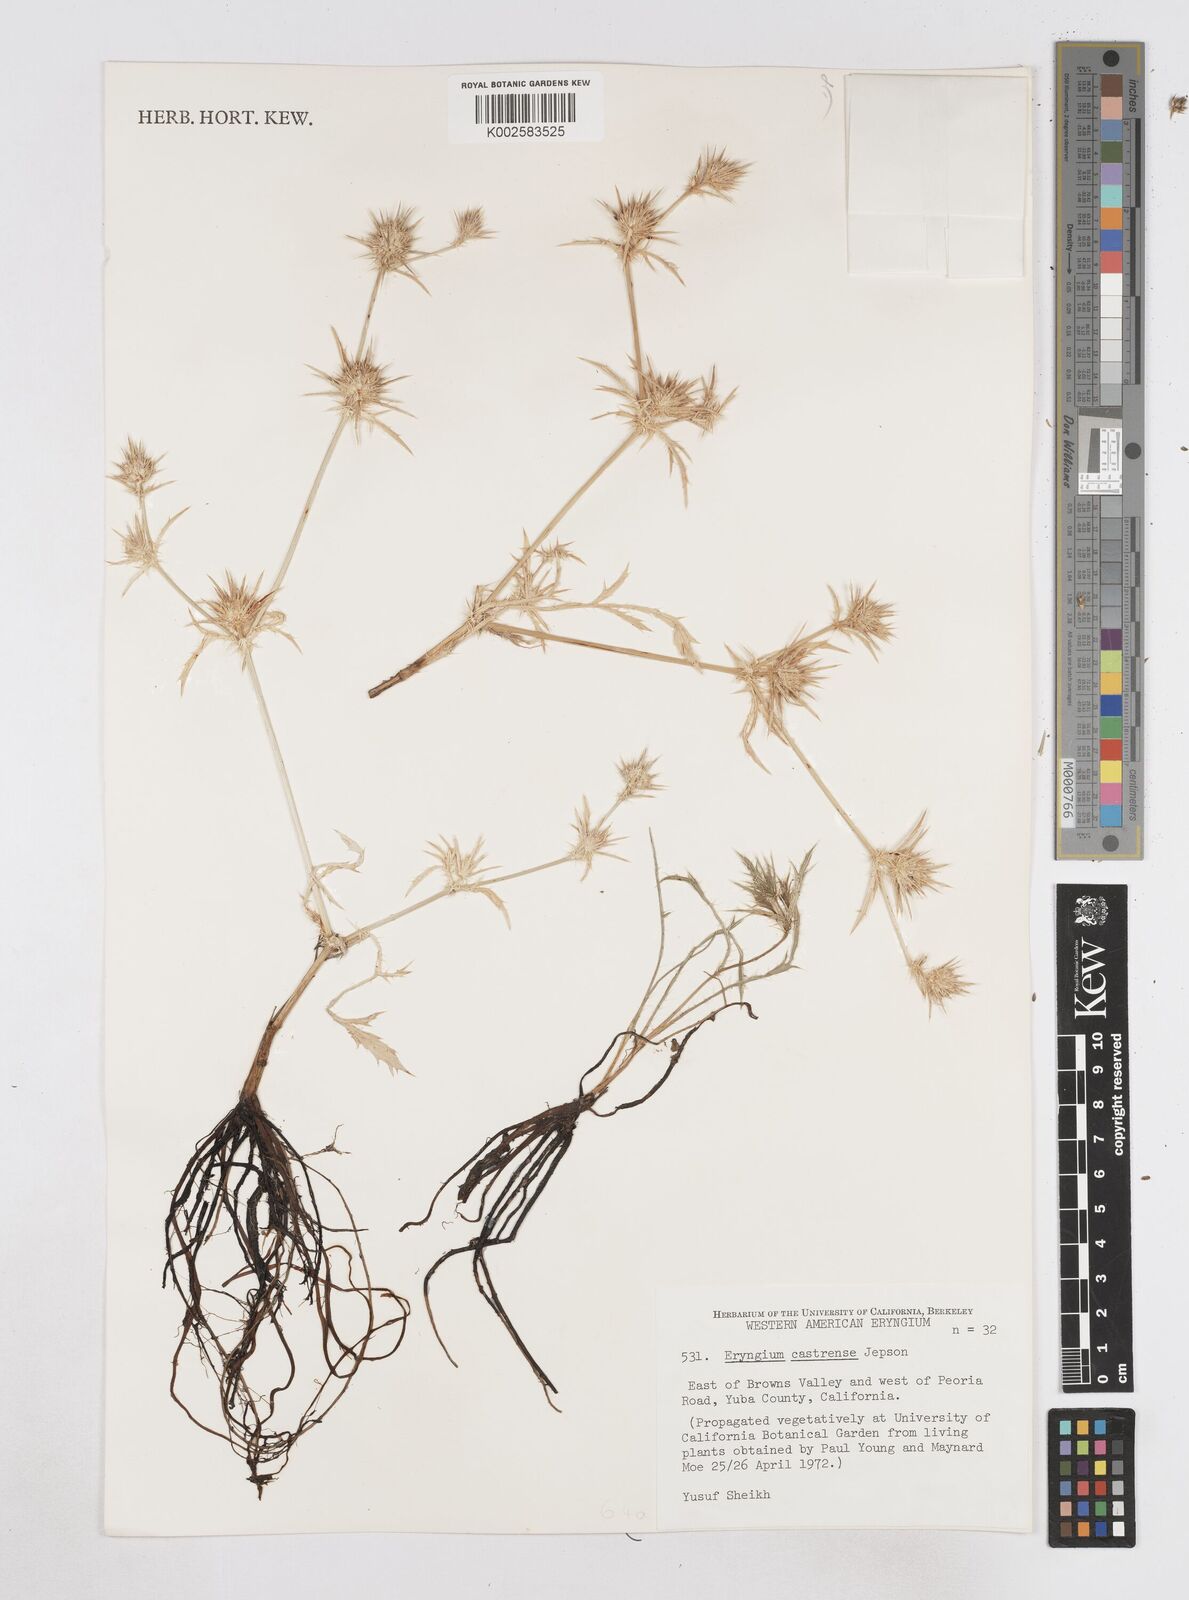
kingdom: Plantae
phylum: Tracheophyta
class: Magnoliopsida
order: Apiales
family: Apiaceae
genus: Eryngium
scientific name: Eryngium castrense
